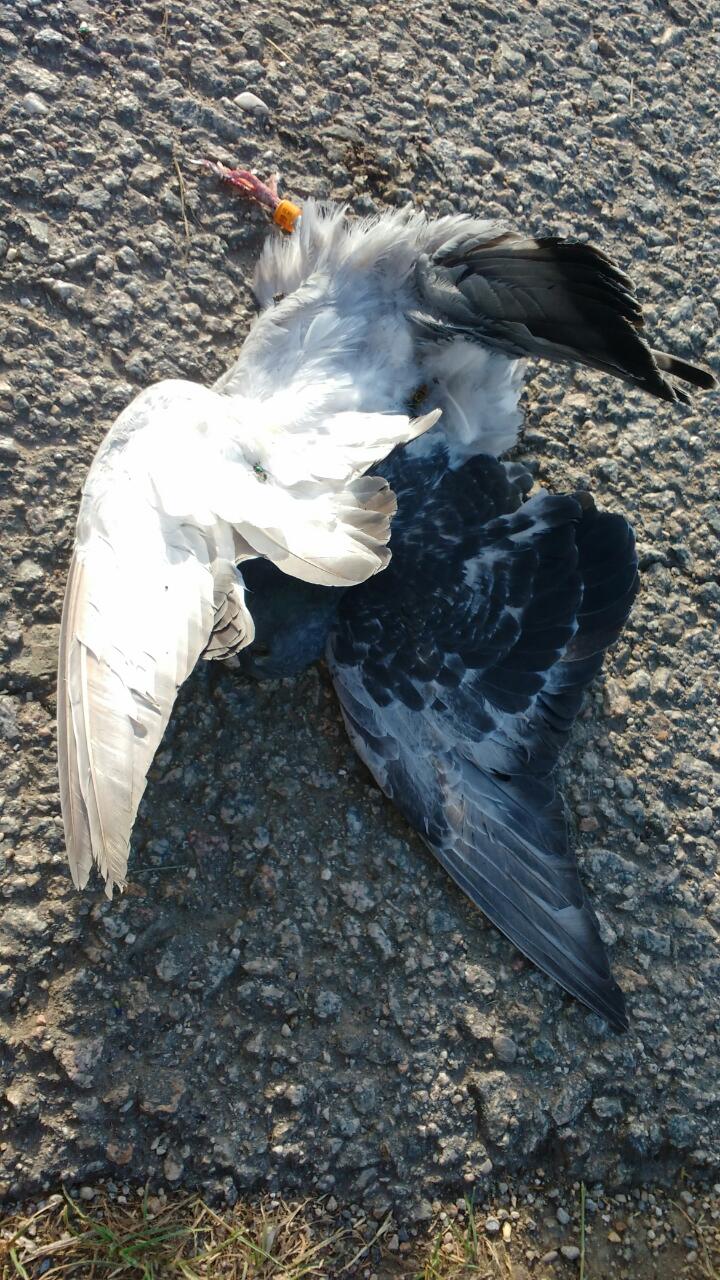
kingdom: Animalia
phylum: Chordata
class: Aves
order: Columbiformes
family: Columbidae
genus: Columba
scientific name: Columba livia
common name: Rock pigeon
